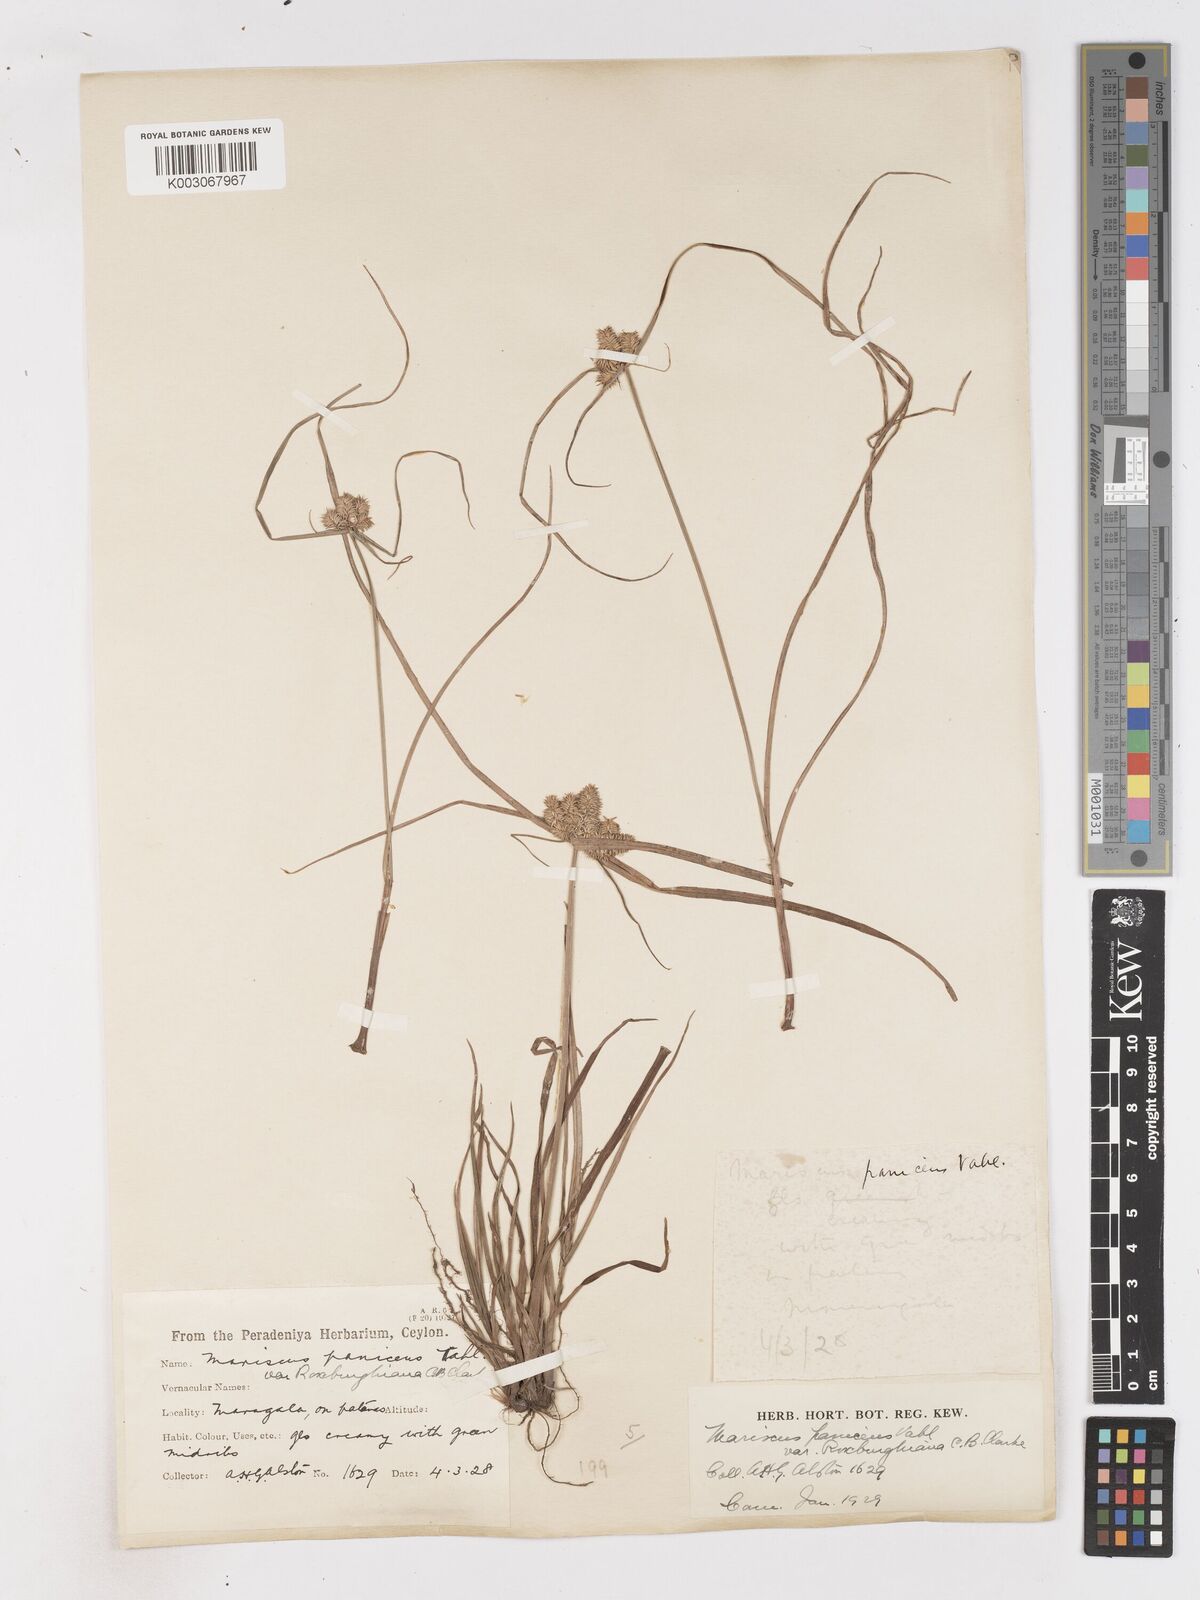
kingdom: Plantae
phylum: Tracheophyta
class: Liliopsida
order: Poales
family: Cyperaceae
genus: Cyperus
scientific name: Cyperus paniceus
